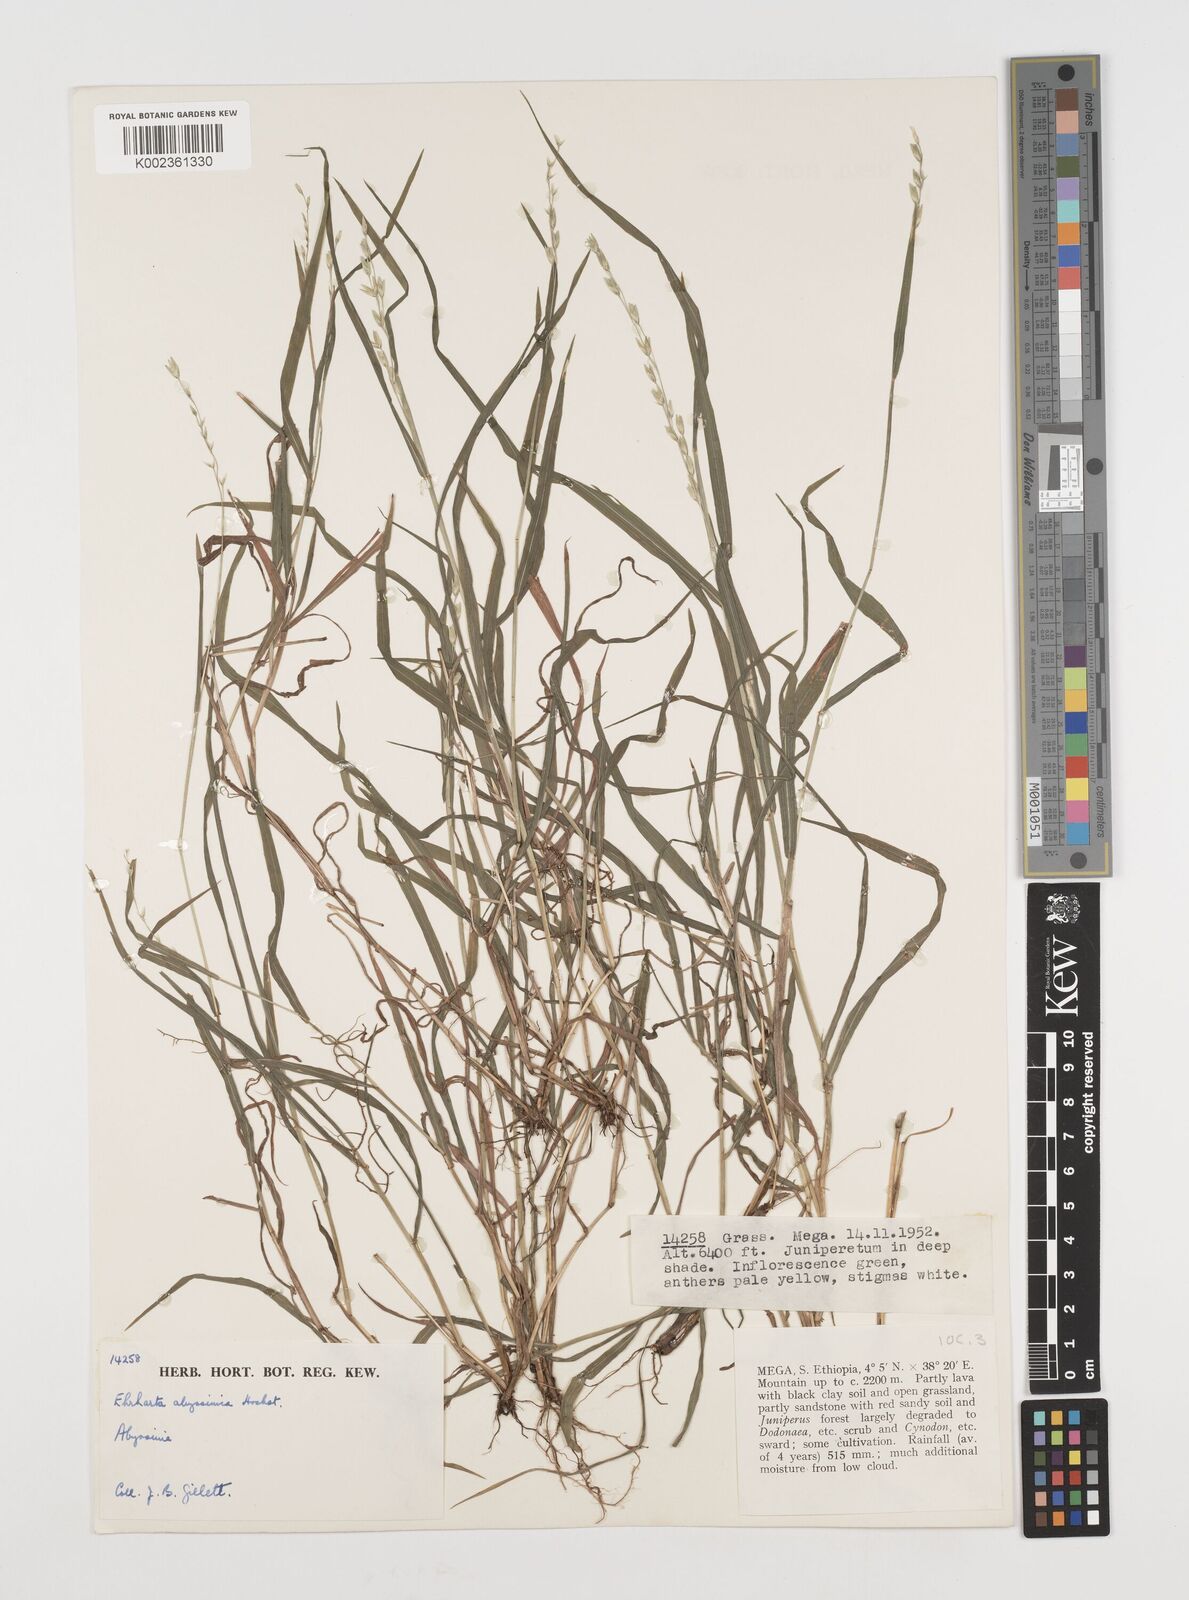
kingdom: Plantae
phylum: Tracheophyta
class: Liliopsida
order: Poales
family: Poaceae
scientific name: Poaceae
